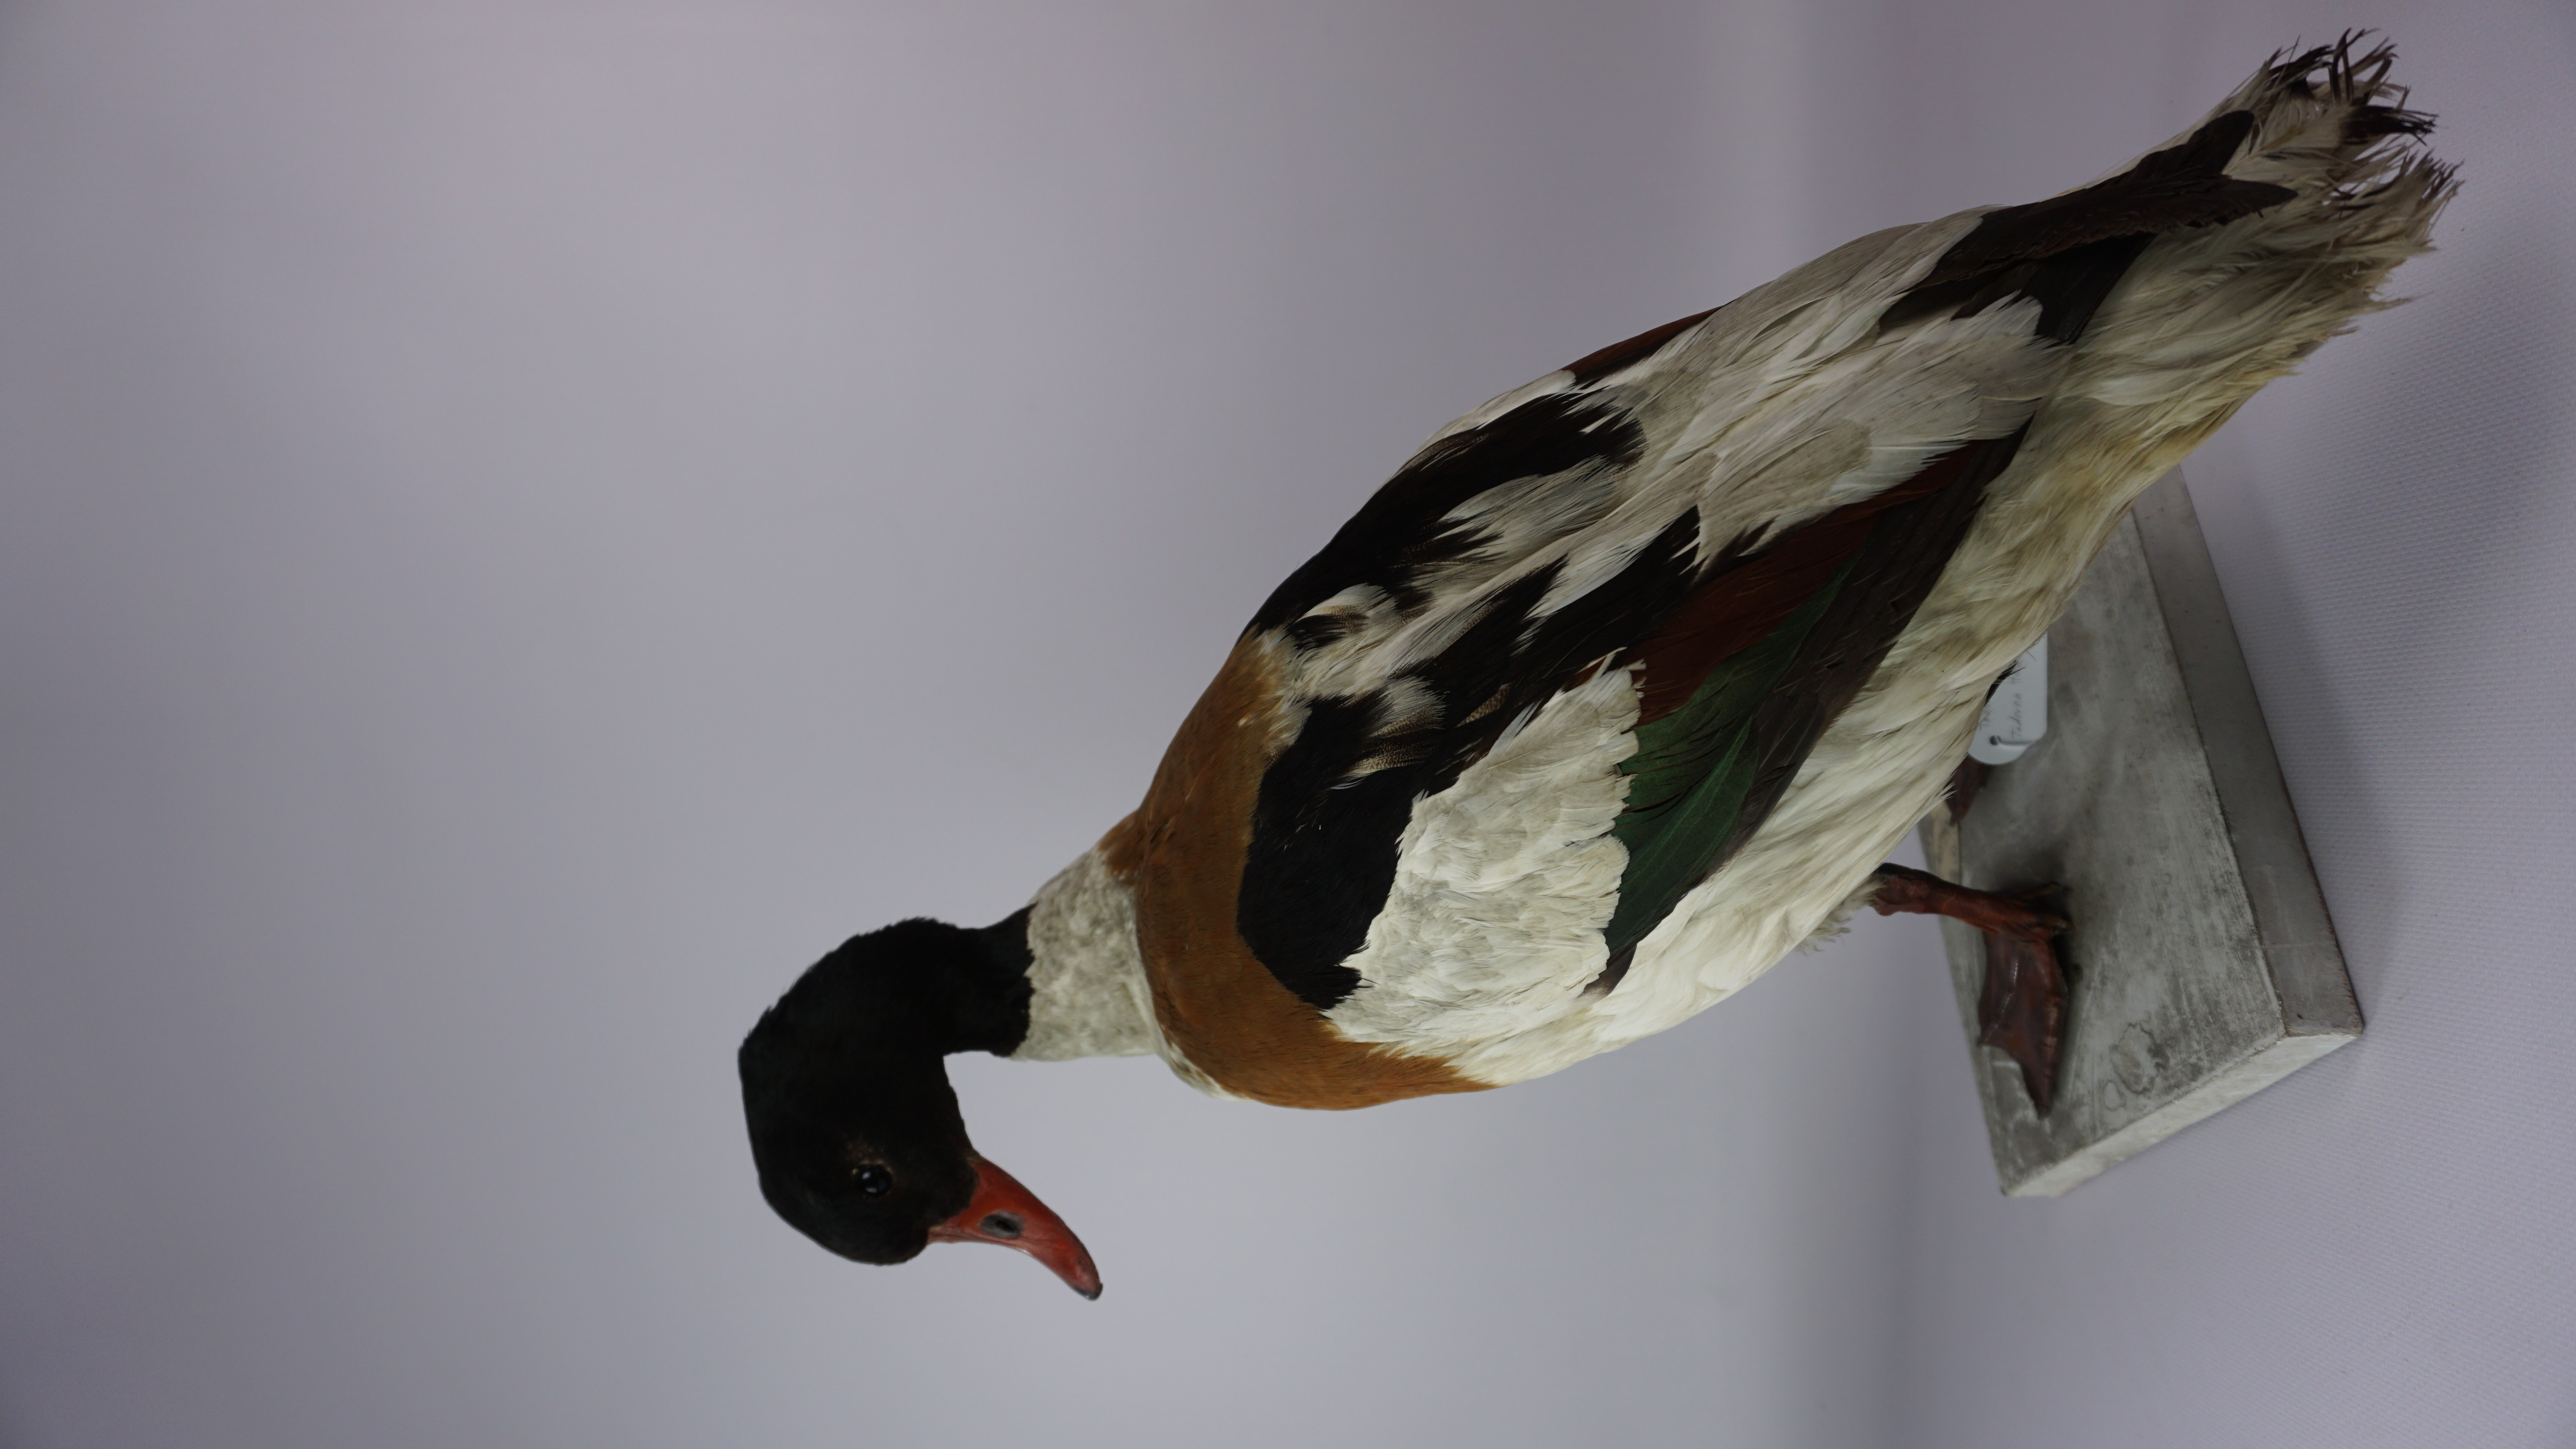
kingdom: Animalia
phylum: Chordata
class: Aves
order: Anseriformes
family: Anatidae
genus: Tadorna
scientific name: Tadorna tadorna
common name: Common shelduck
